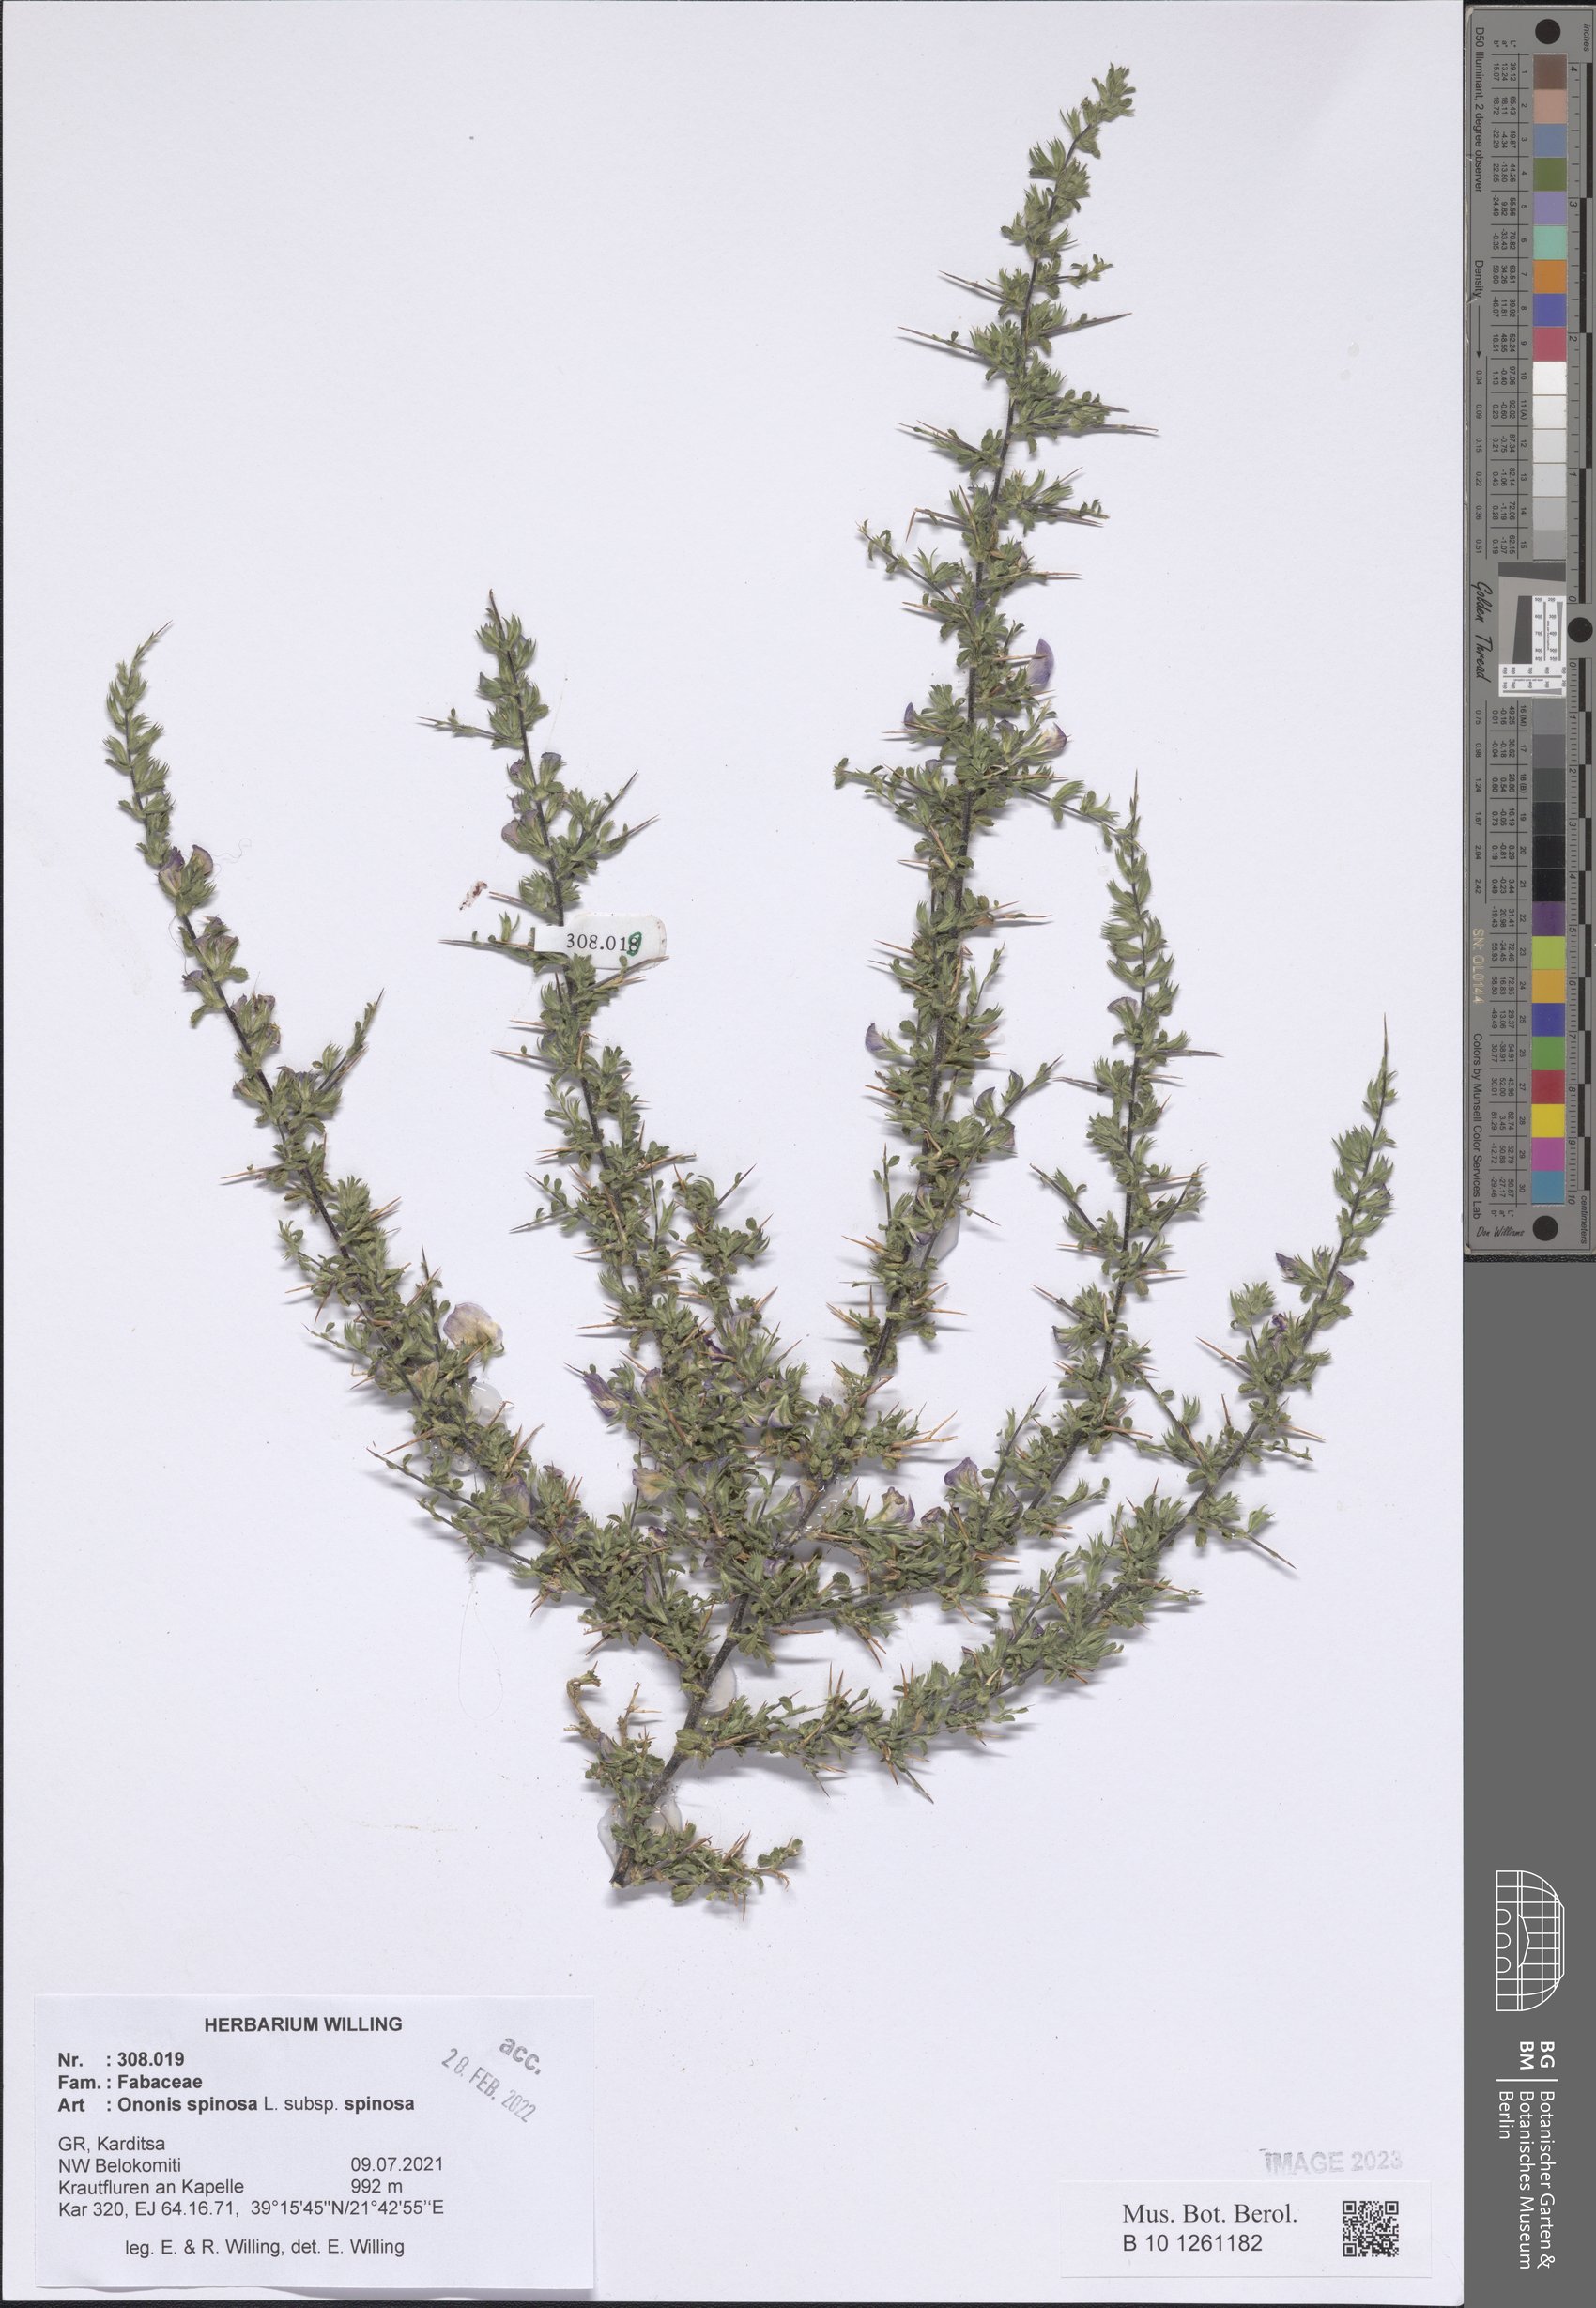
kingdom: Plantae
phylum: Tracheophyta
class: Magnoliopsida
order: Fabales
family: Fabaceae
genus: Ononis
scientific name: Ononis spinosa
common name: Spiny restharrow
